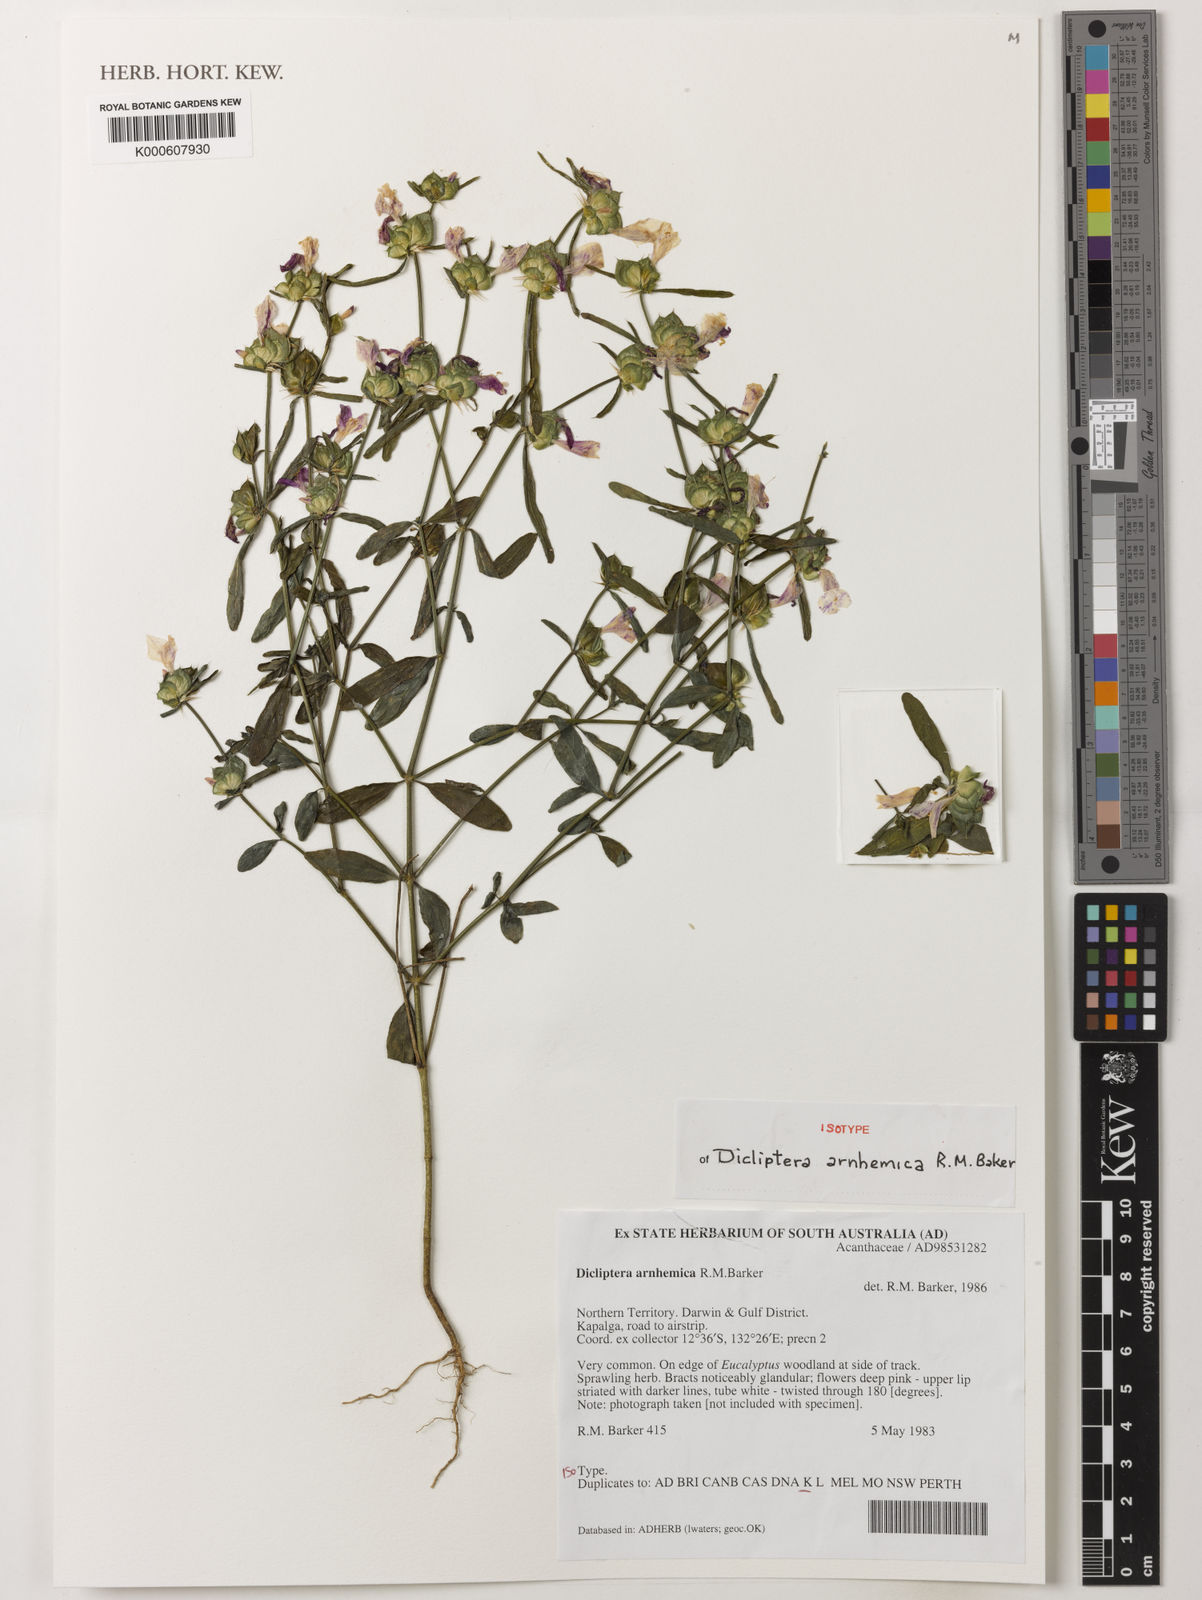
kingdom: Plantae
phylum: Tracheophyta
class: Magnoliopsida
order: Lamiales
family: Acanthaceae
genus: Dicliptera
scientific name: Dicliptera arnhemica
